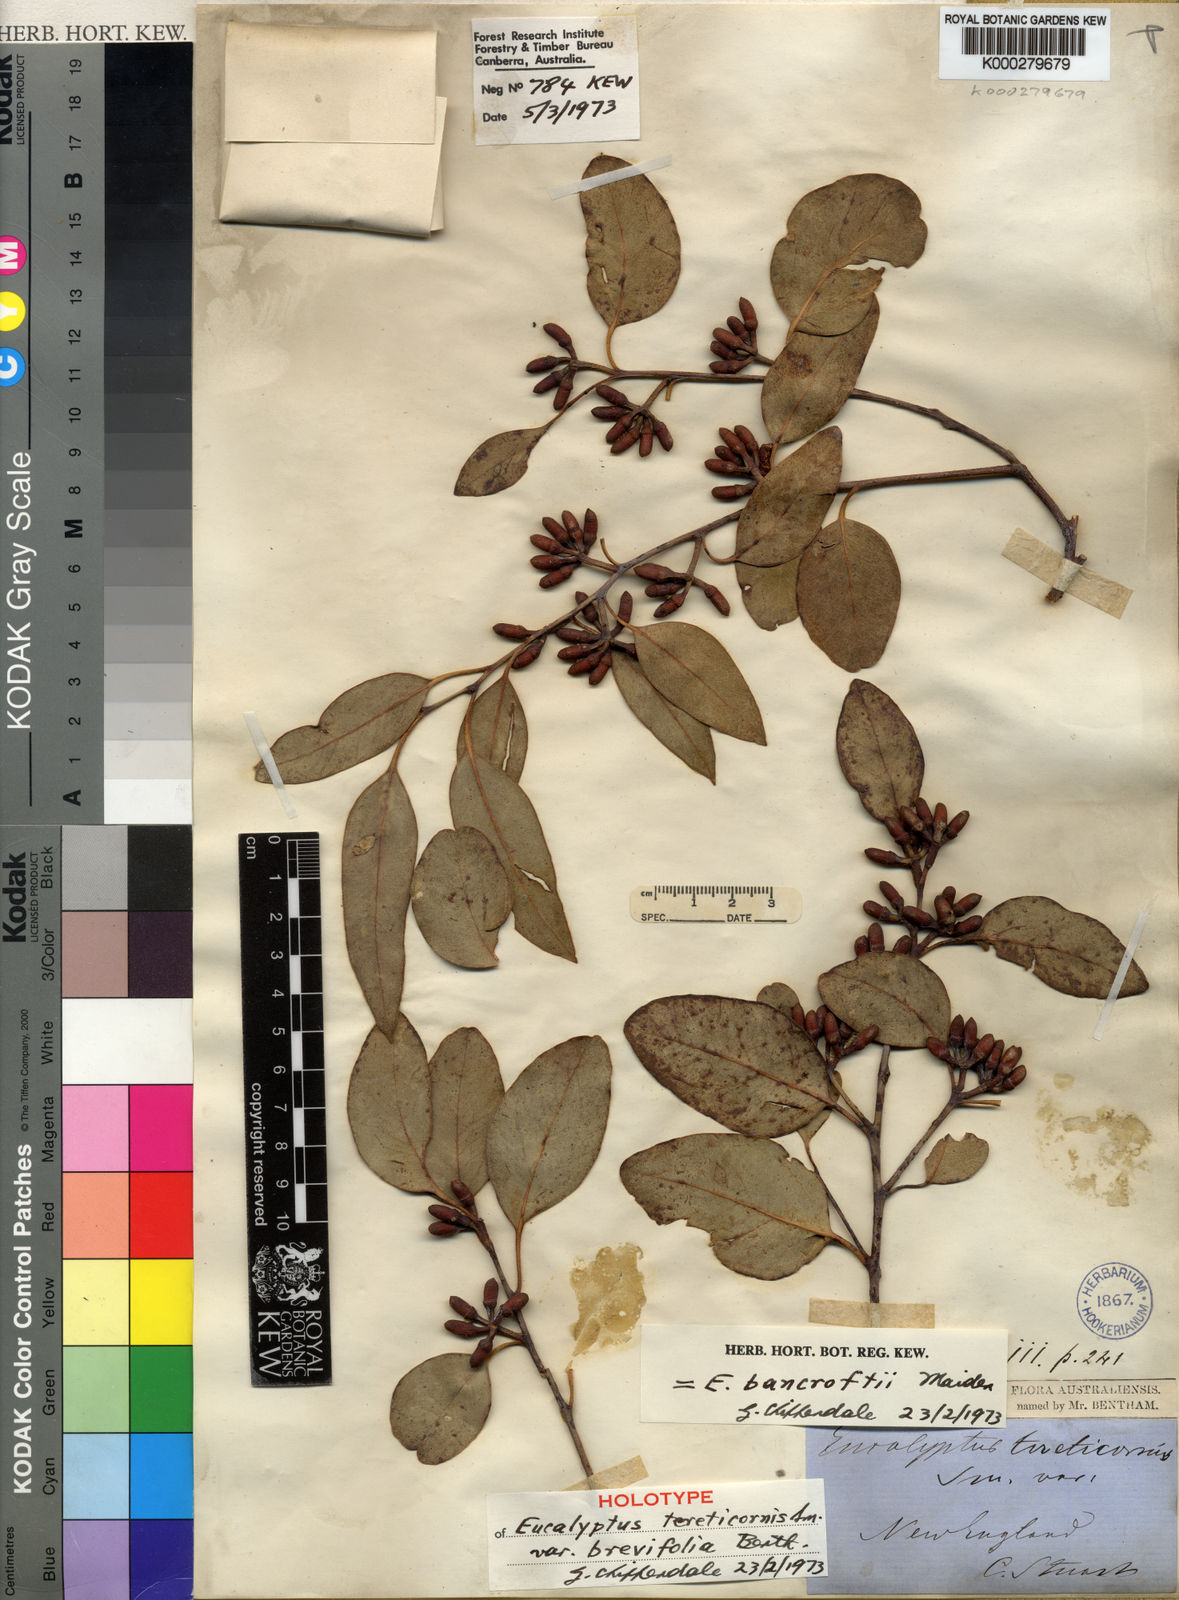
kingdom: Plantae
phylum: Tracheophyta
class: Magnoliopsida
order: Myrtales
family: Myrtaceae
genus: Eucalyptus
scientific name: Eucalyptus bancroftii
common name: Blue gum
